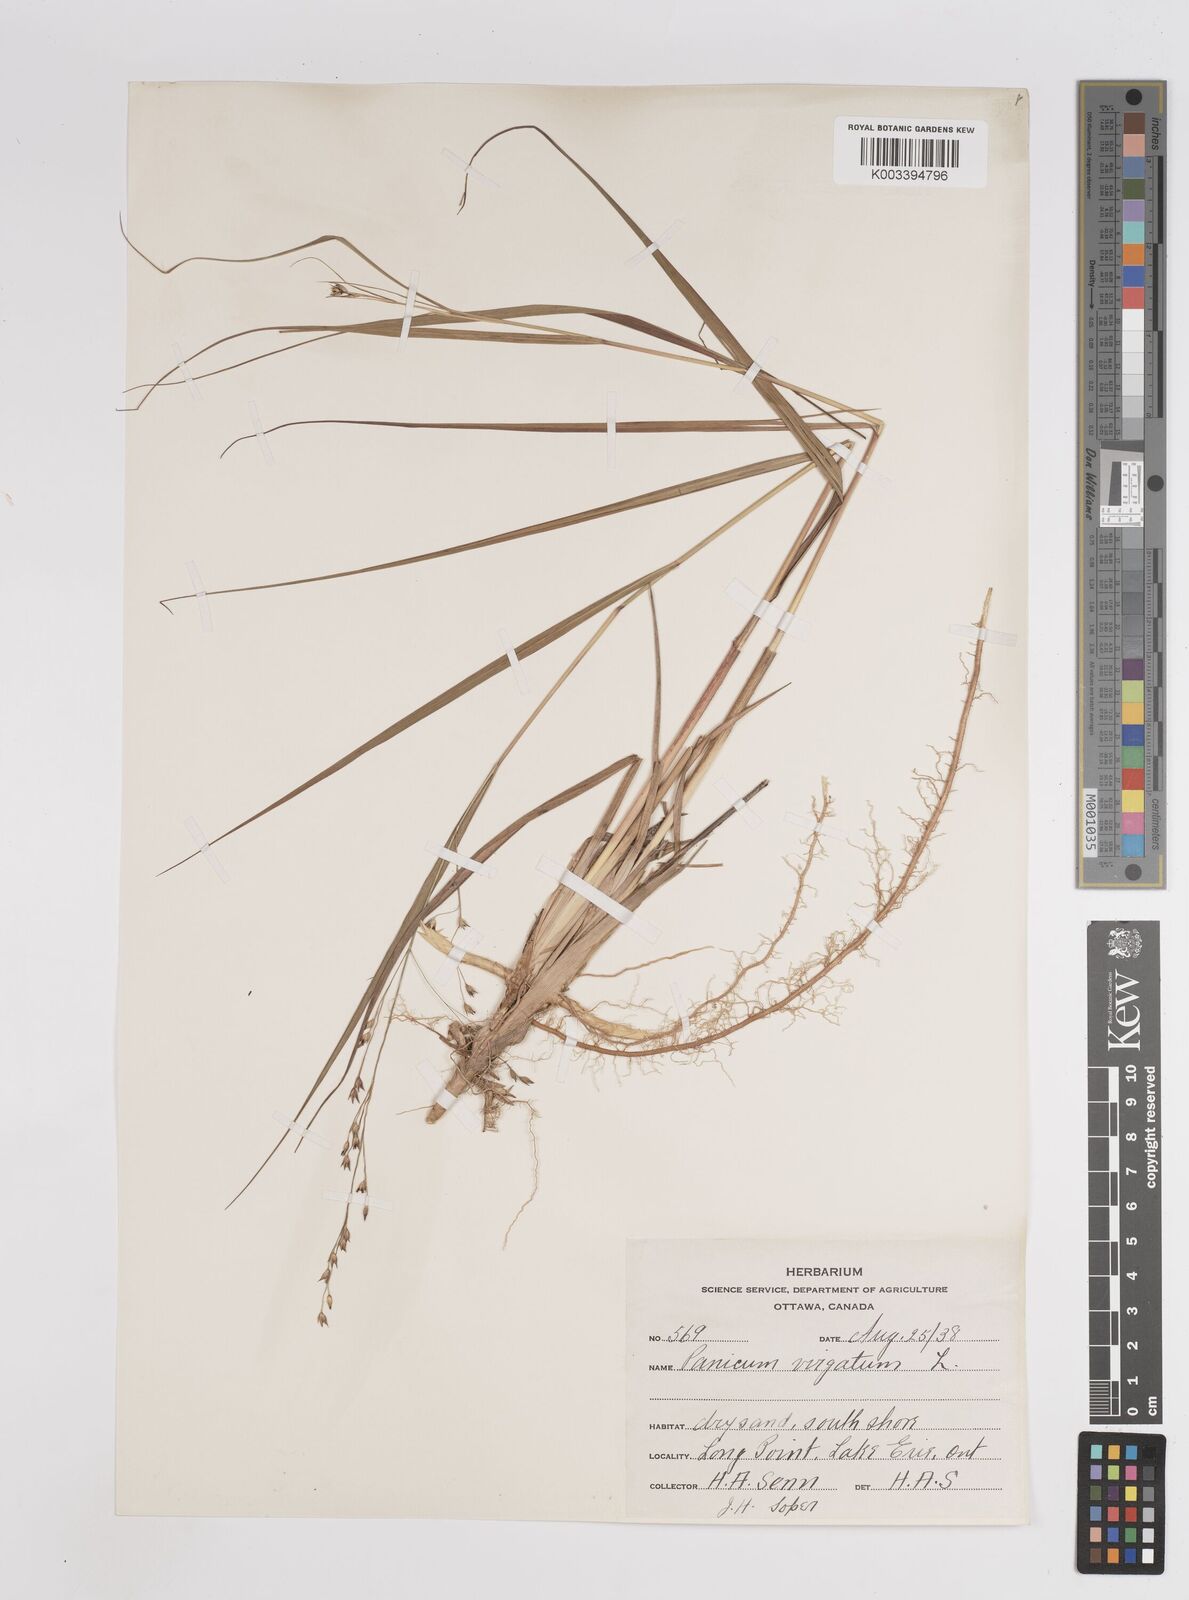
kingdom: Plantae
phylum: Tracheophyta
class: Liliopsida
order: Poales
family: Poaceae
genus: Panicum
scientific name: Panicum virgatum
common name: Switchgrass
